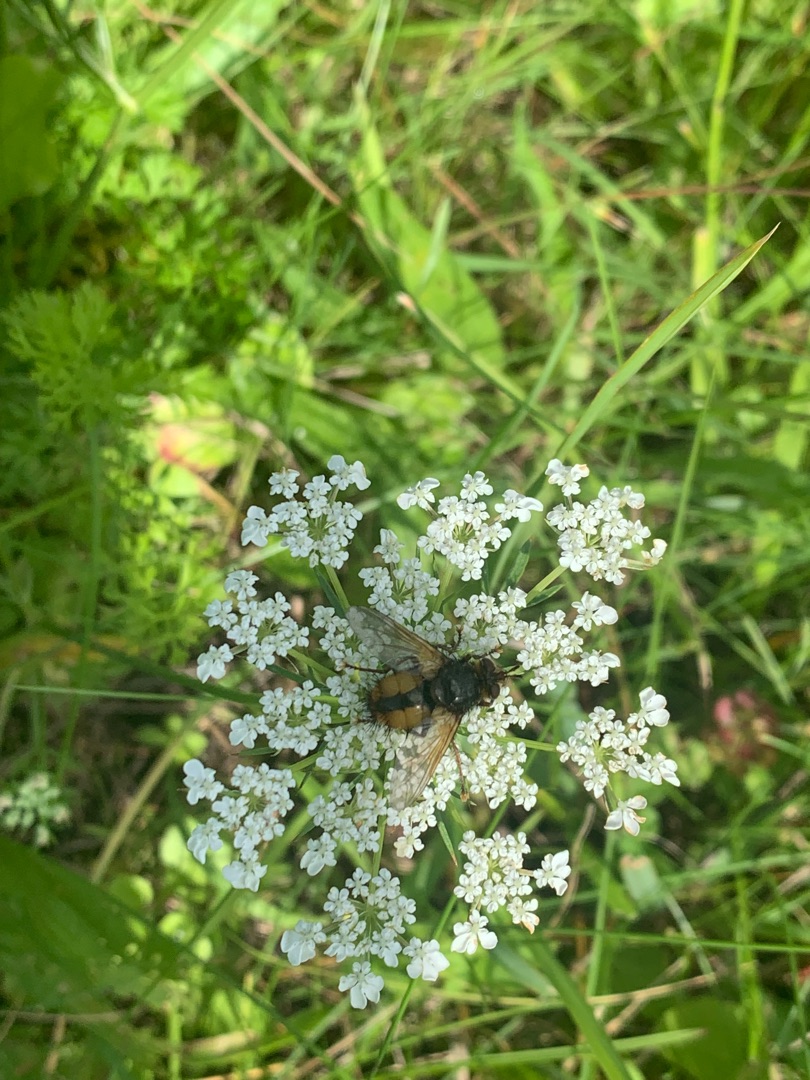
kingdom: Animalia
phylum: Arthropoda
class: Insecta
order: Diptera
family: Tachinidae
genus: Tachina
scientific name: Tachina fera
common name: Mellemfluen oskar
